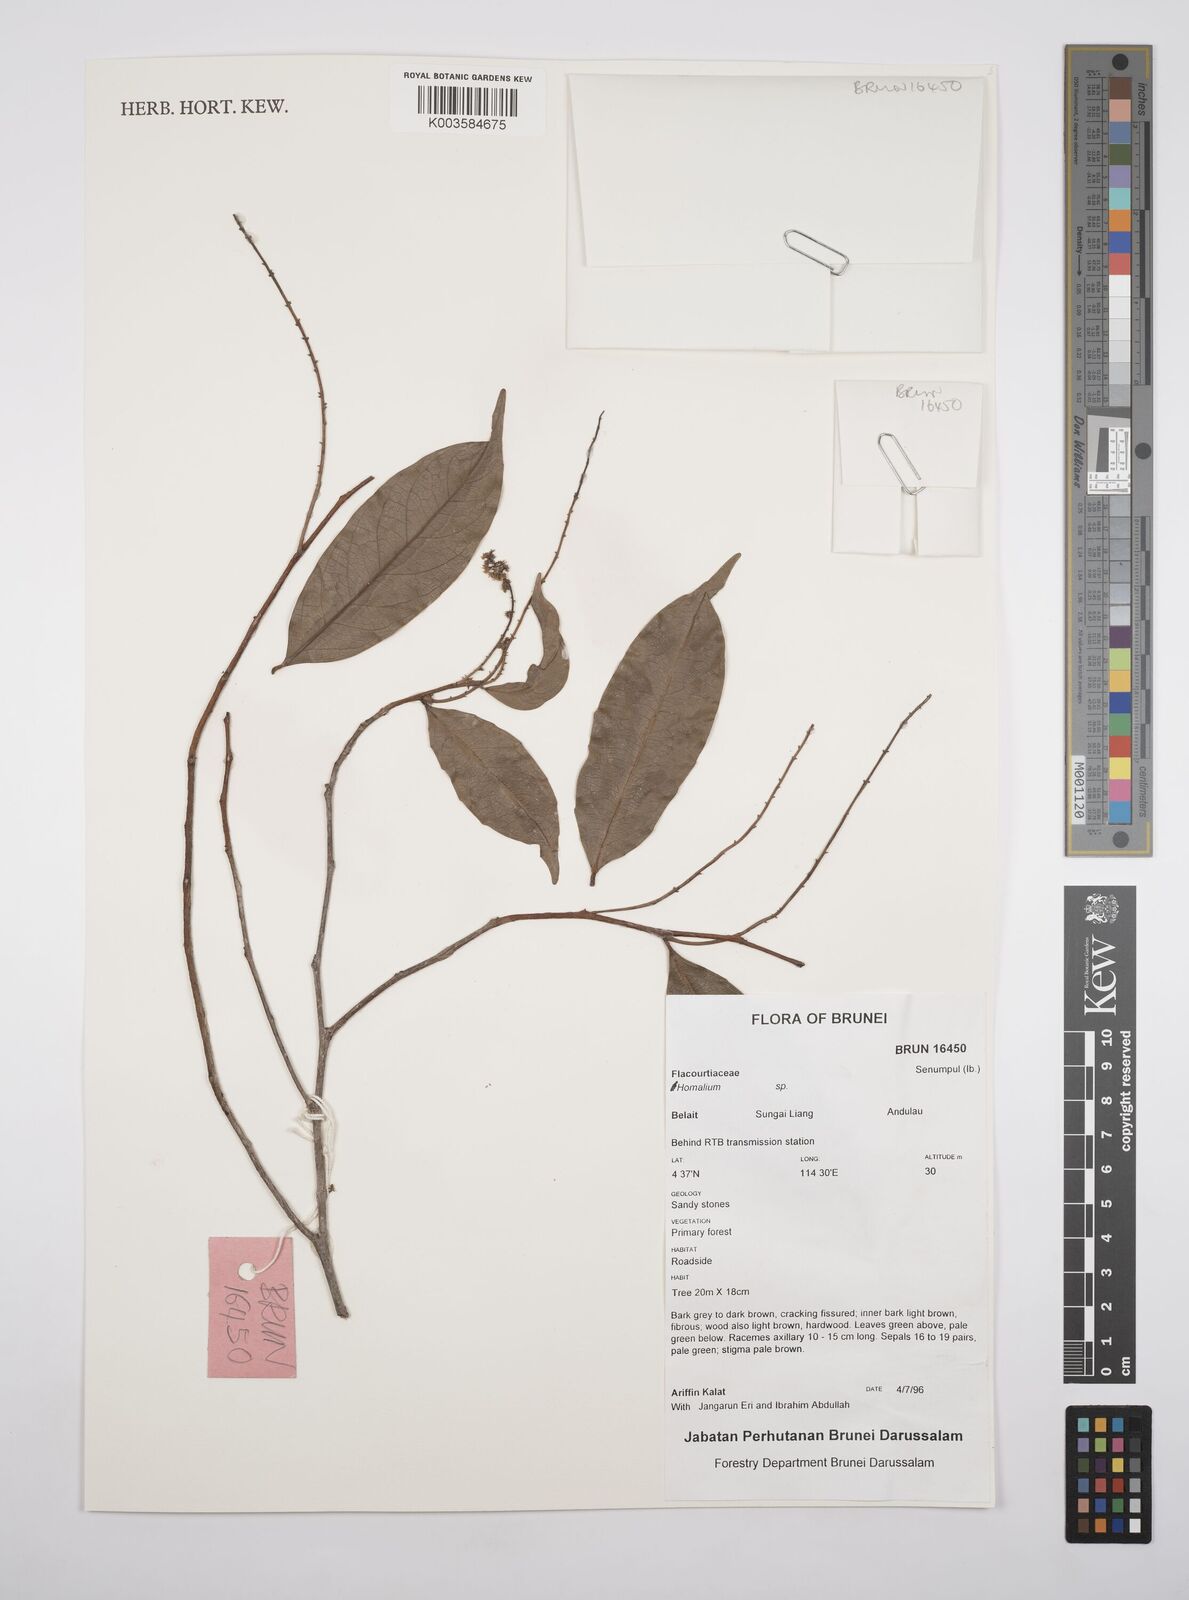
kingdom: Plantae
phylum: Tracheophyta
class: Magnoliopsida
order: Malpighiales
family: Salicaceae
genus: Homalium
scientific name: Homalium
